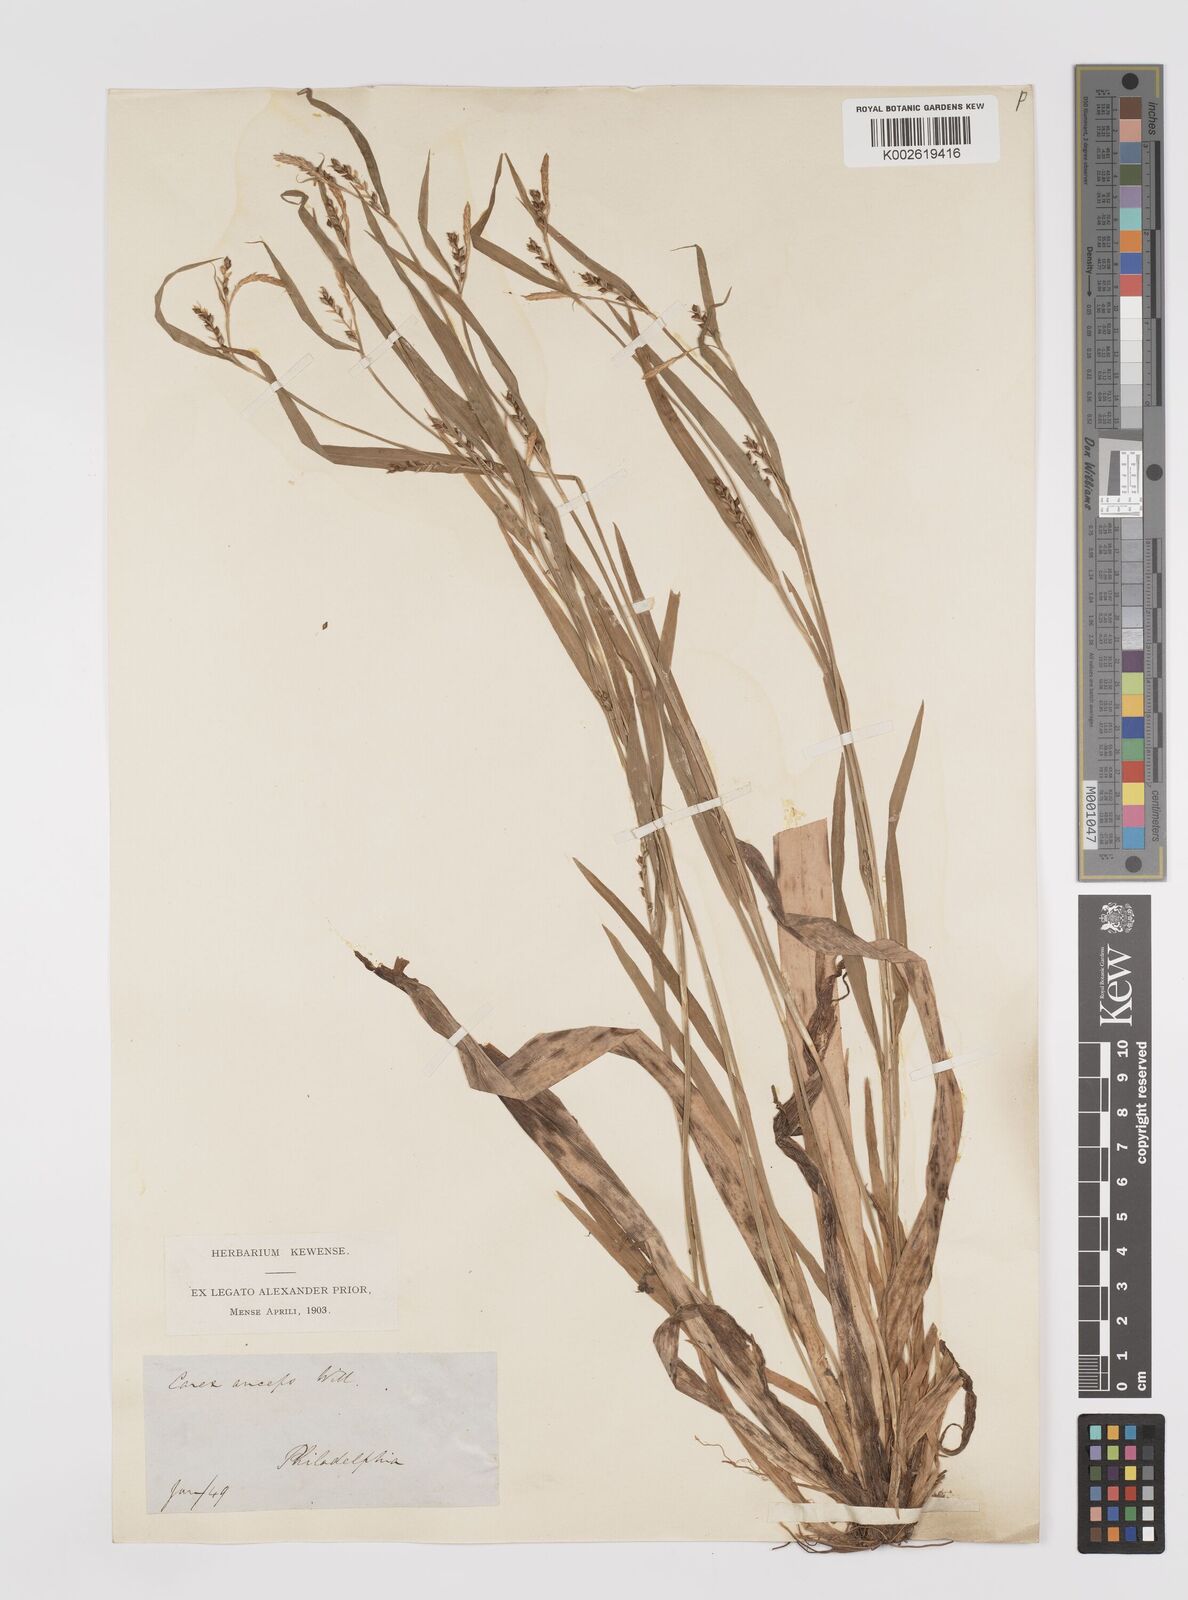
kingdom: Plantae
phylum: Tracheophyta
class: Liliopsida
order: Poales
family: Cyperaceae
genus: Carex
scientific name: Carex grisea
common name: Eastern narrow-leaved sedge
